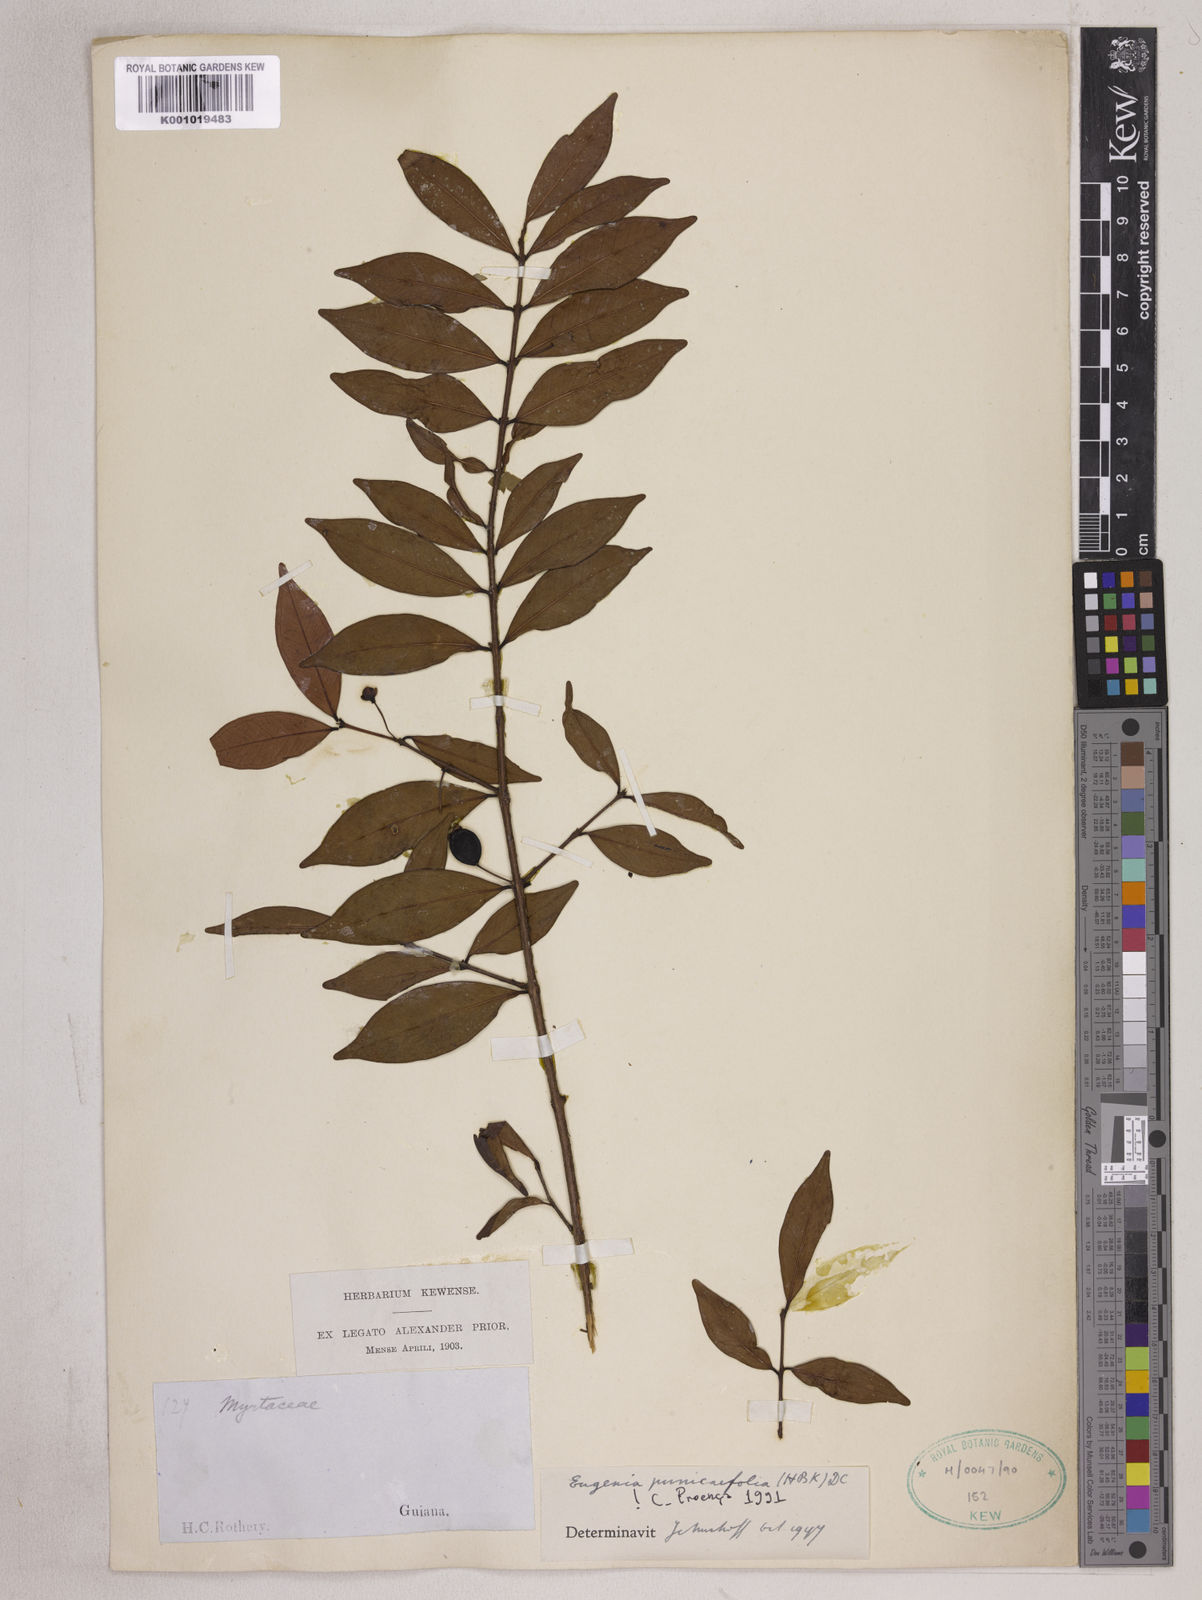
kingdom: Plantae
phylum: Tracheophyta
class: Magnoliopsida
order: Myrtales
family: Myrtaceae
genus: Eugenia
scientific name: Eugenia punicifolia
